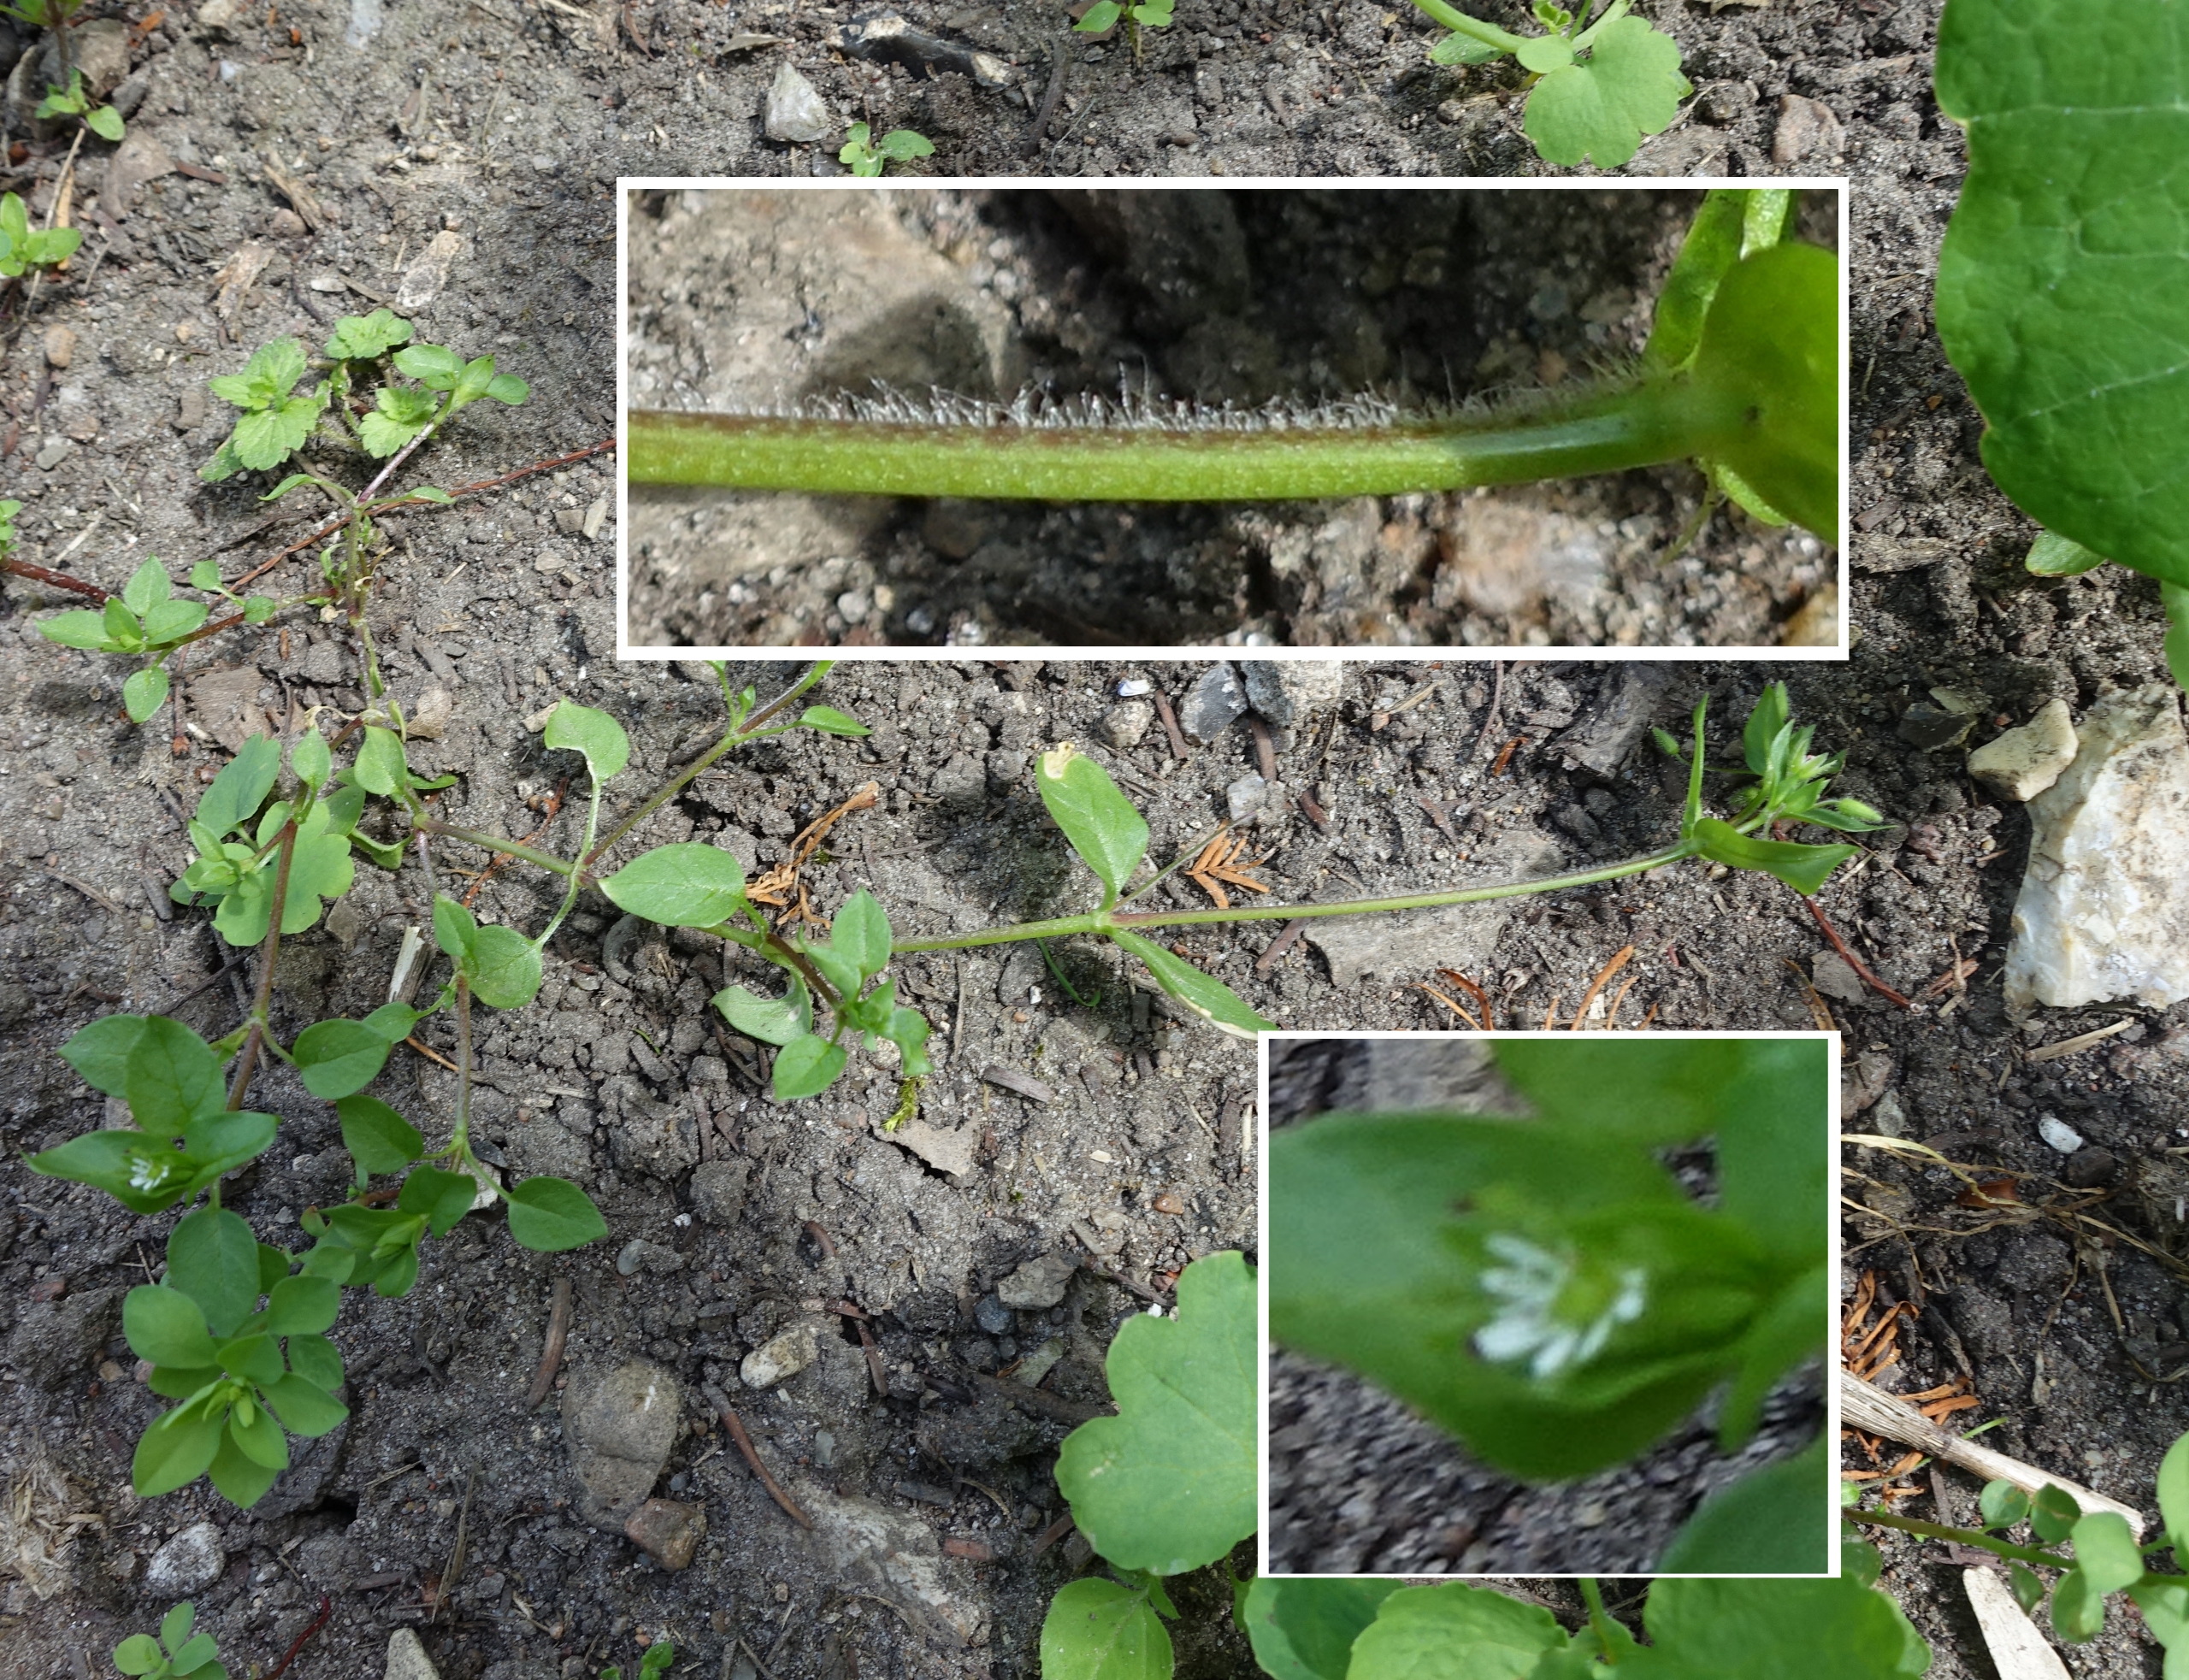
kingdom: Plantae
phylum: Tracheophyta
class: Magnoliopsida
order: Caryophyllales
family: Caryophyllaceae
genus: Stellaria
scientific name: Stellaria media
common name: Almindelig fuglegræs
